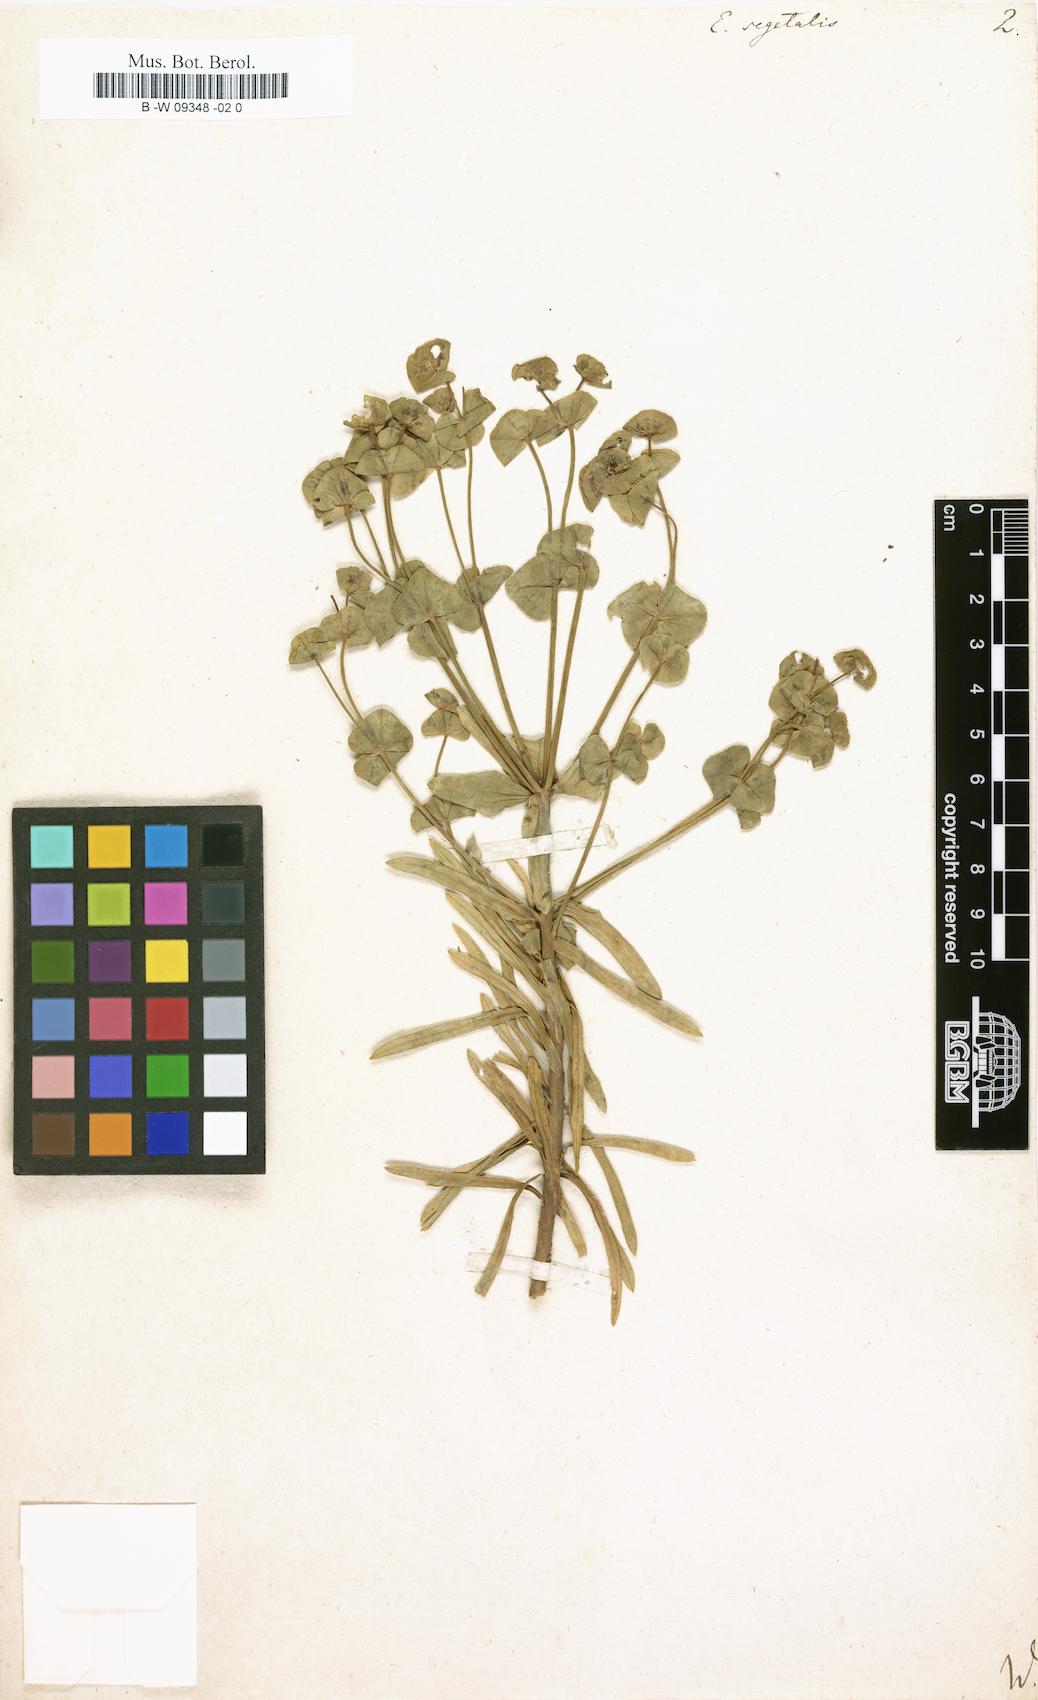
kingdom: Plantae
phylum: Tracheophyta
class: Magnoliopsida
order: Malpighiales
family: Euphorbiaceae
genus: Euphorbia
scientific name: Euphorbia segetalis
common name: Corn spurge
